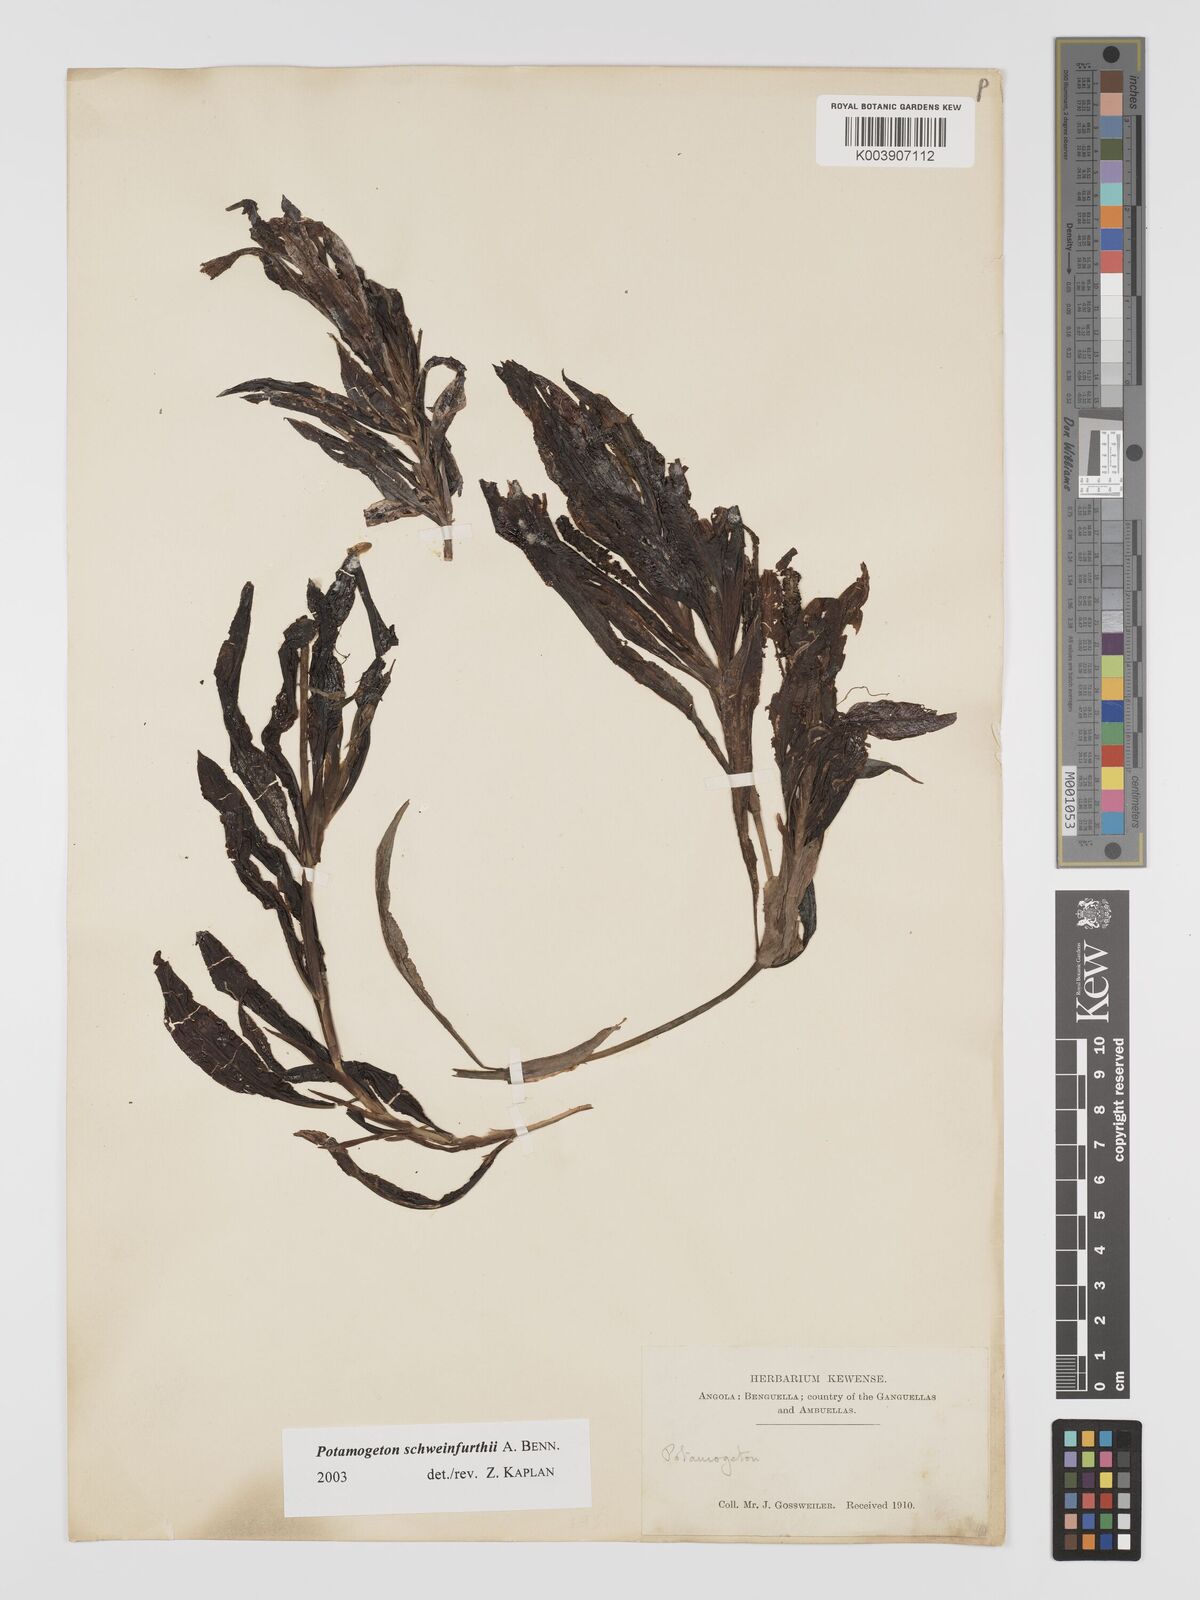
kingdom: Plantae
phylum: Tracheophyta
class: Liliopsida
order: Alismatales
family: Potamogetonaceae
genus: Potamogeton
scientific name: Potamogeton
